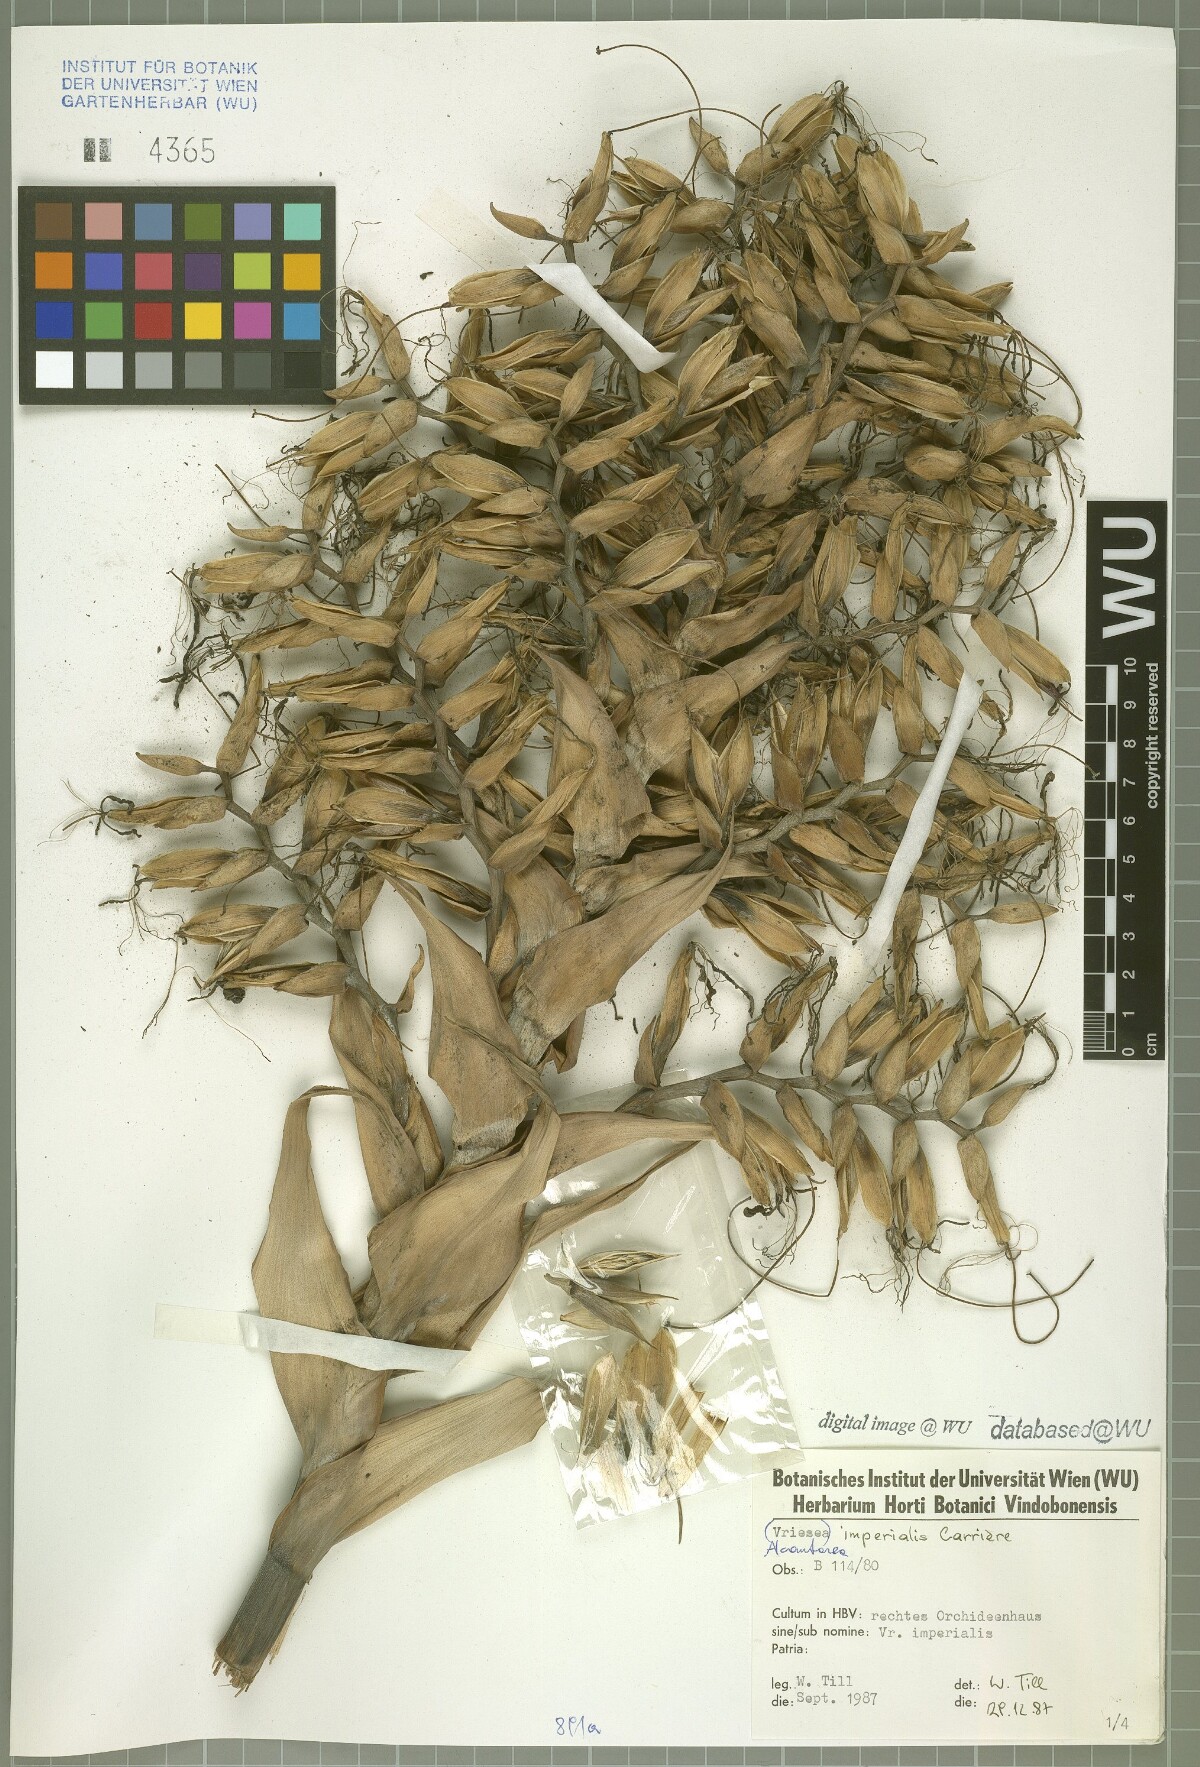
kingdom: Plantae
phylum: Tracheophyta
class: Liliopsida
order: Poales
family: Bromeliaceae
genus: Alcantarea
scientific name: Alcantarea imperialis
